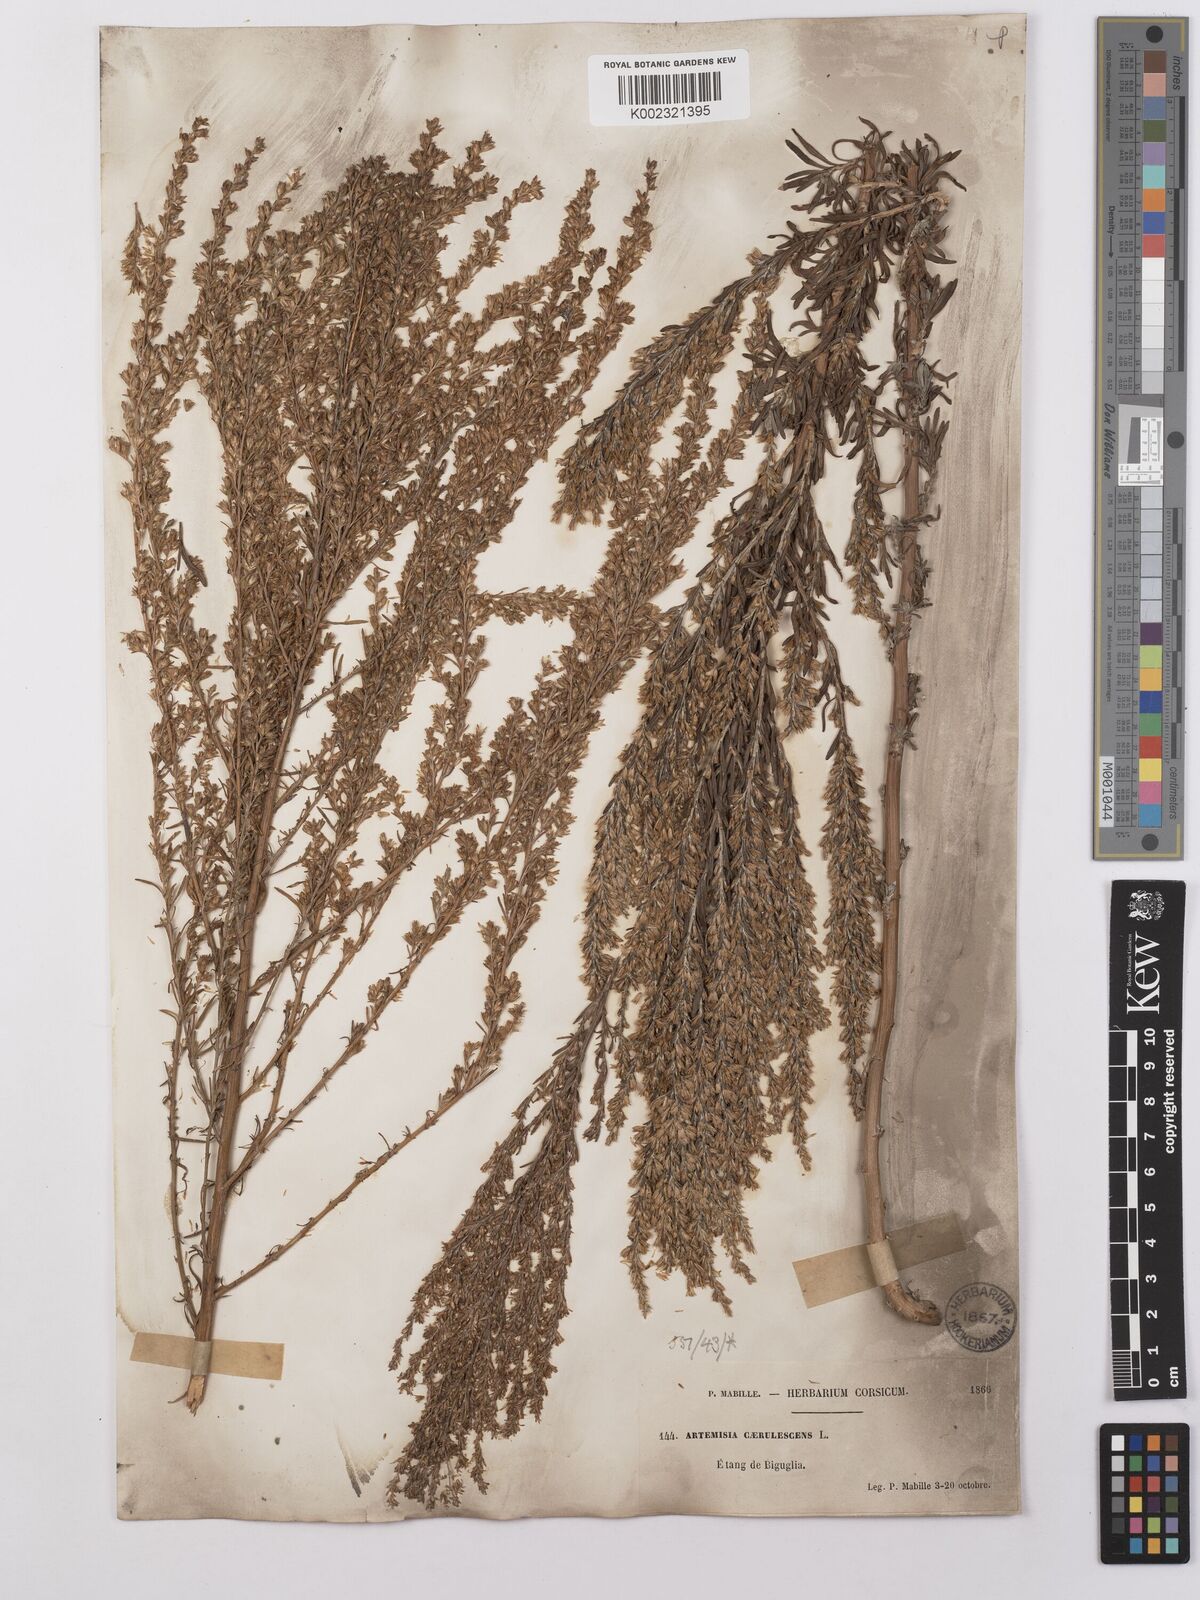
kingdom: Plantae
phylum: Tracheophyta
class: Magnoliopsida
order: Asterales
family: Asteraceae
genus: Artemisia
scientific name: Artemisia caerulescens
